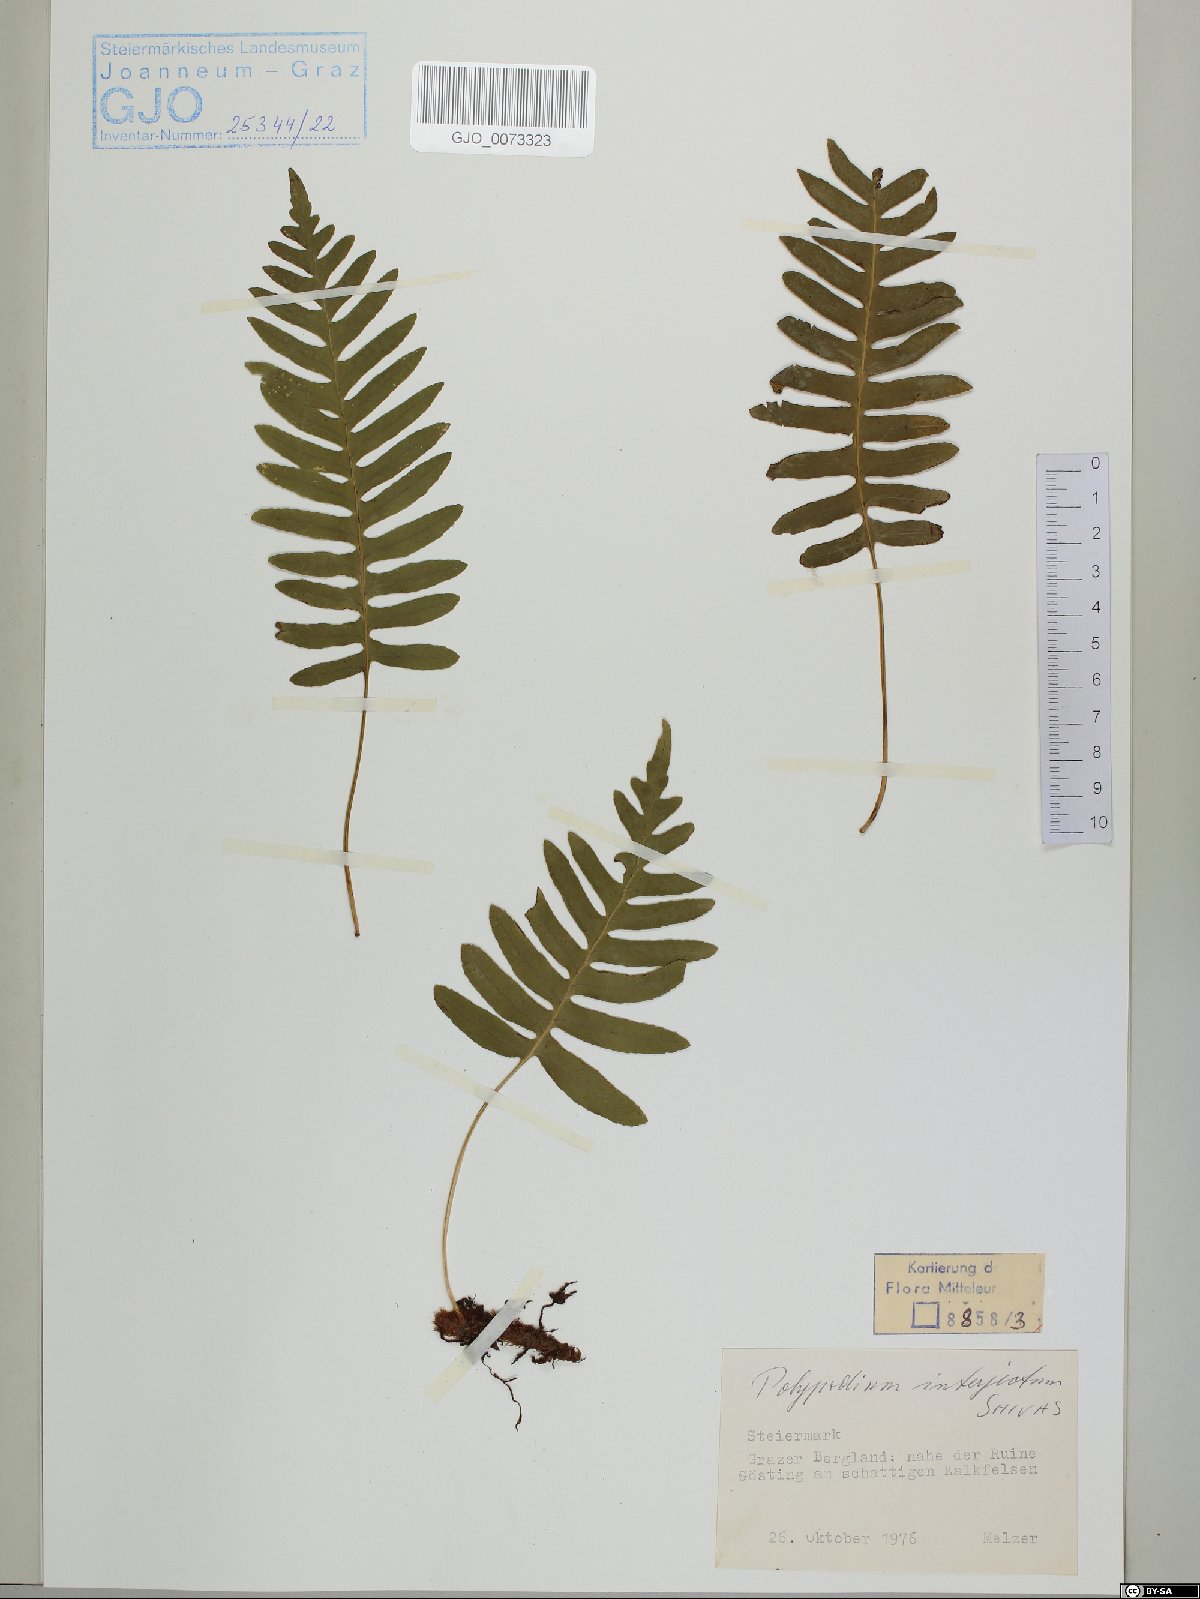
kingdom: Plantae
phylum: Tracheophyta
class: Polypodiopsida
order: Polypodiales
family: Polypodiaceae
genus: Polypodium
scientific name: Polypodium interjectum
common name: Intermediate polypody
